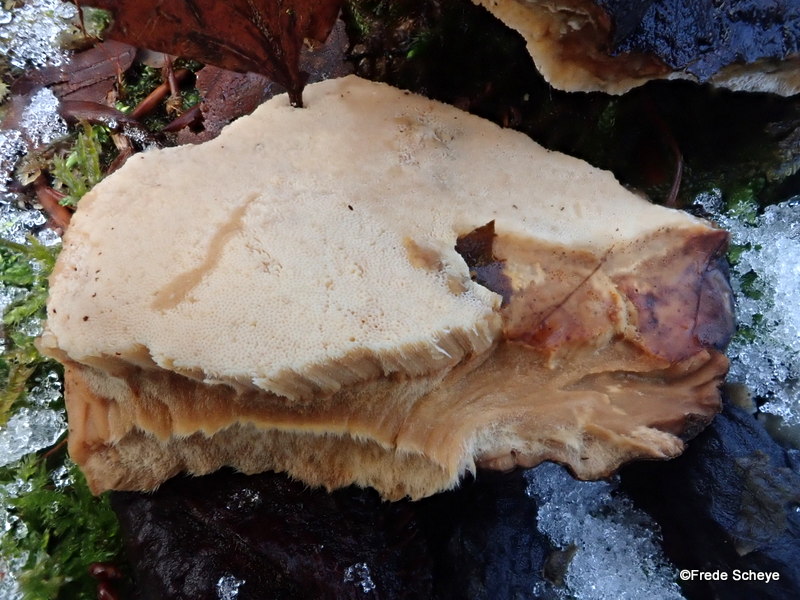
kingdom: Fungi
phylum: Basidiomycota
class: Agaricomycetes
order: Polyporales
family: Ischnodermataceae
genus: Ischnoderma
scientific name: Ischnoderma resinosum
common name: løv-tjæreporesvamp
